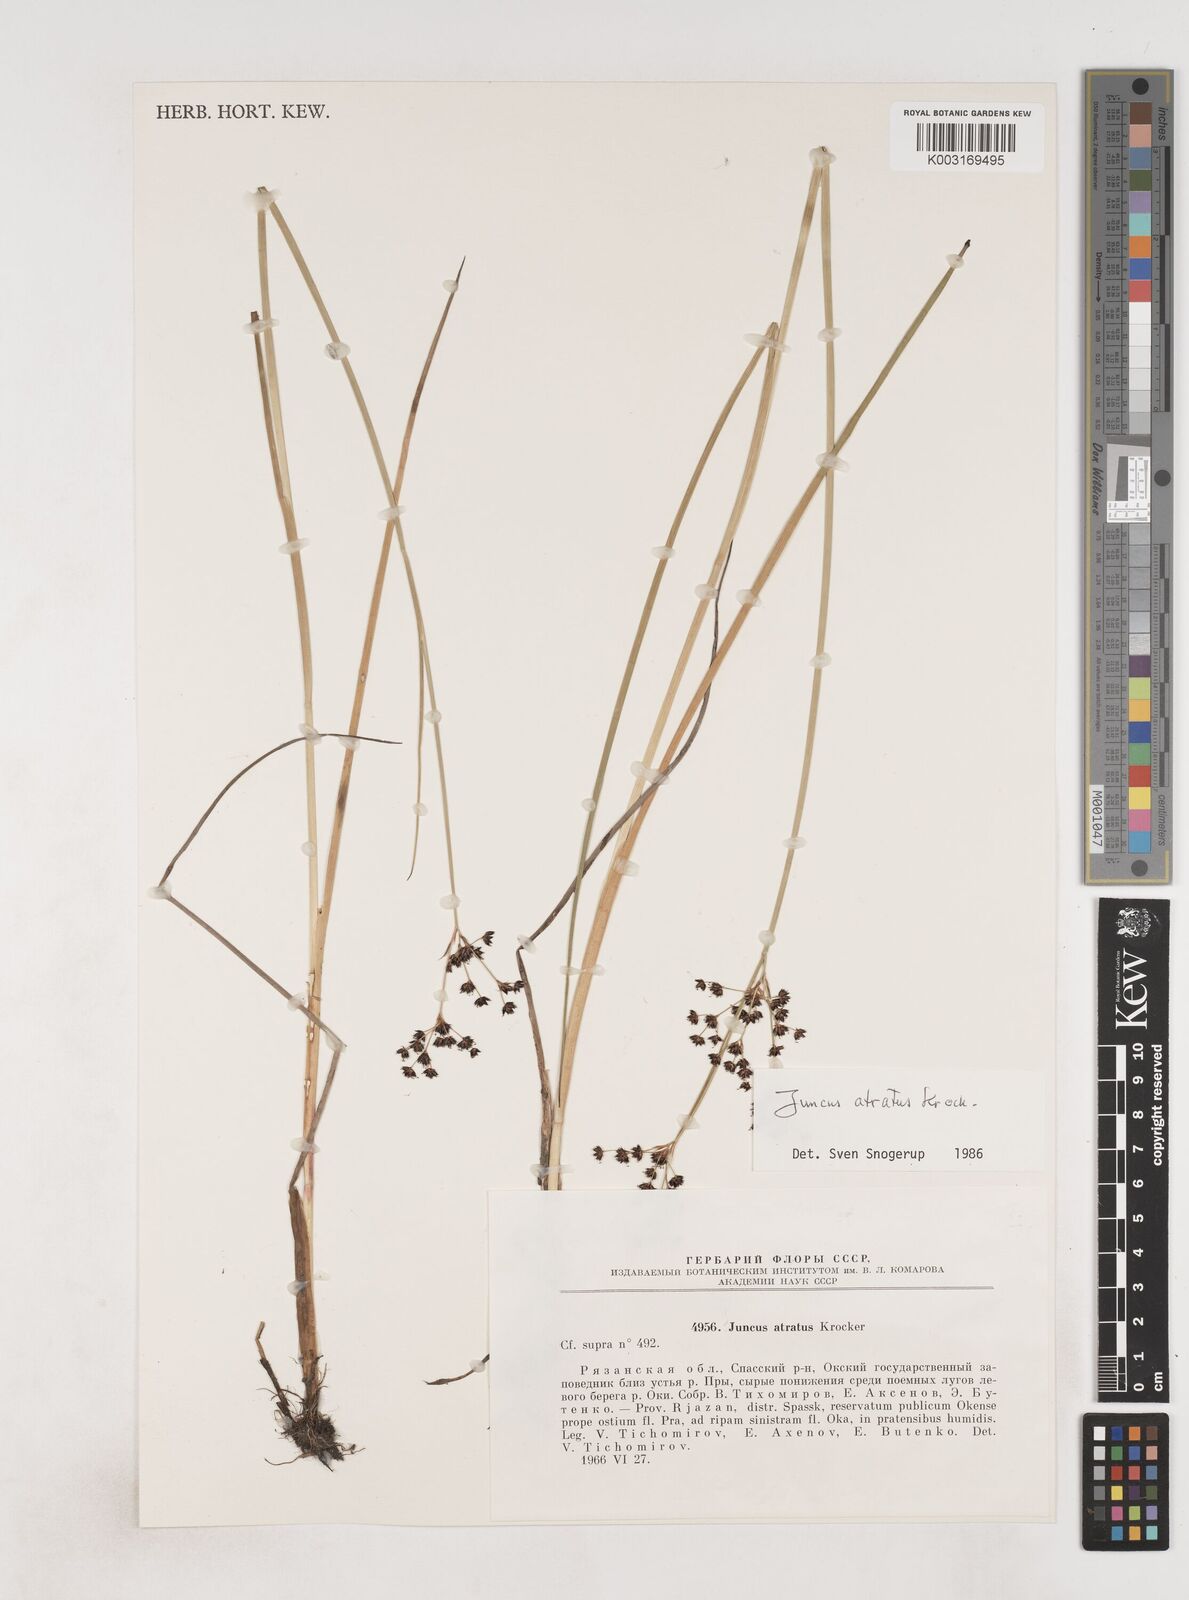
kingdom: Plantae
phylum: Tracheophyta
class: Liliopsida
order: Poales
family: Juncaceae
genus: Juncus
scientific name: Juncus atratus
